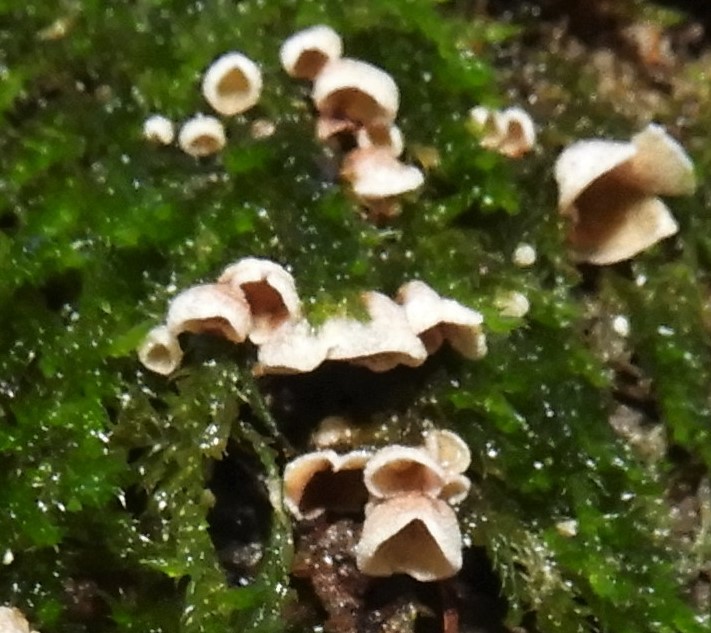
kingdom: Fungi
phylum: Basidiomycota
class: Agaricomycetes
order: Agaricales
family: Chromocyphellaceae
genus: Chromocyphella
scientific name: Chromocyphella muscicola
